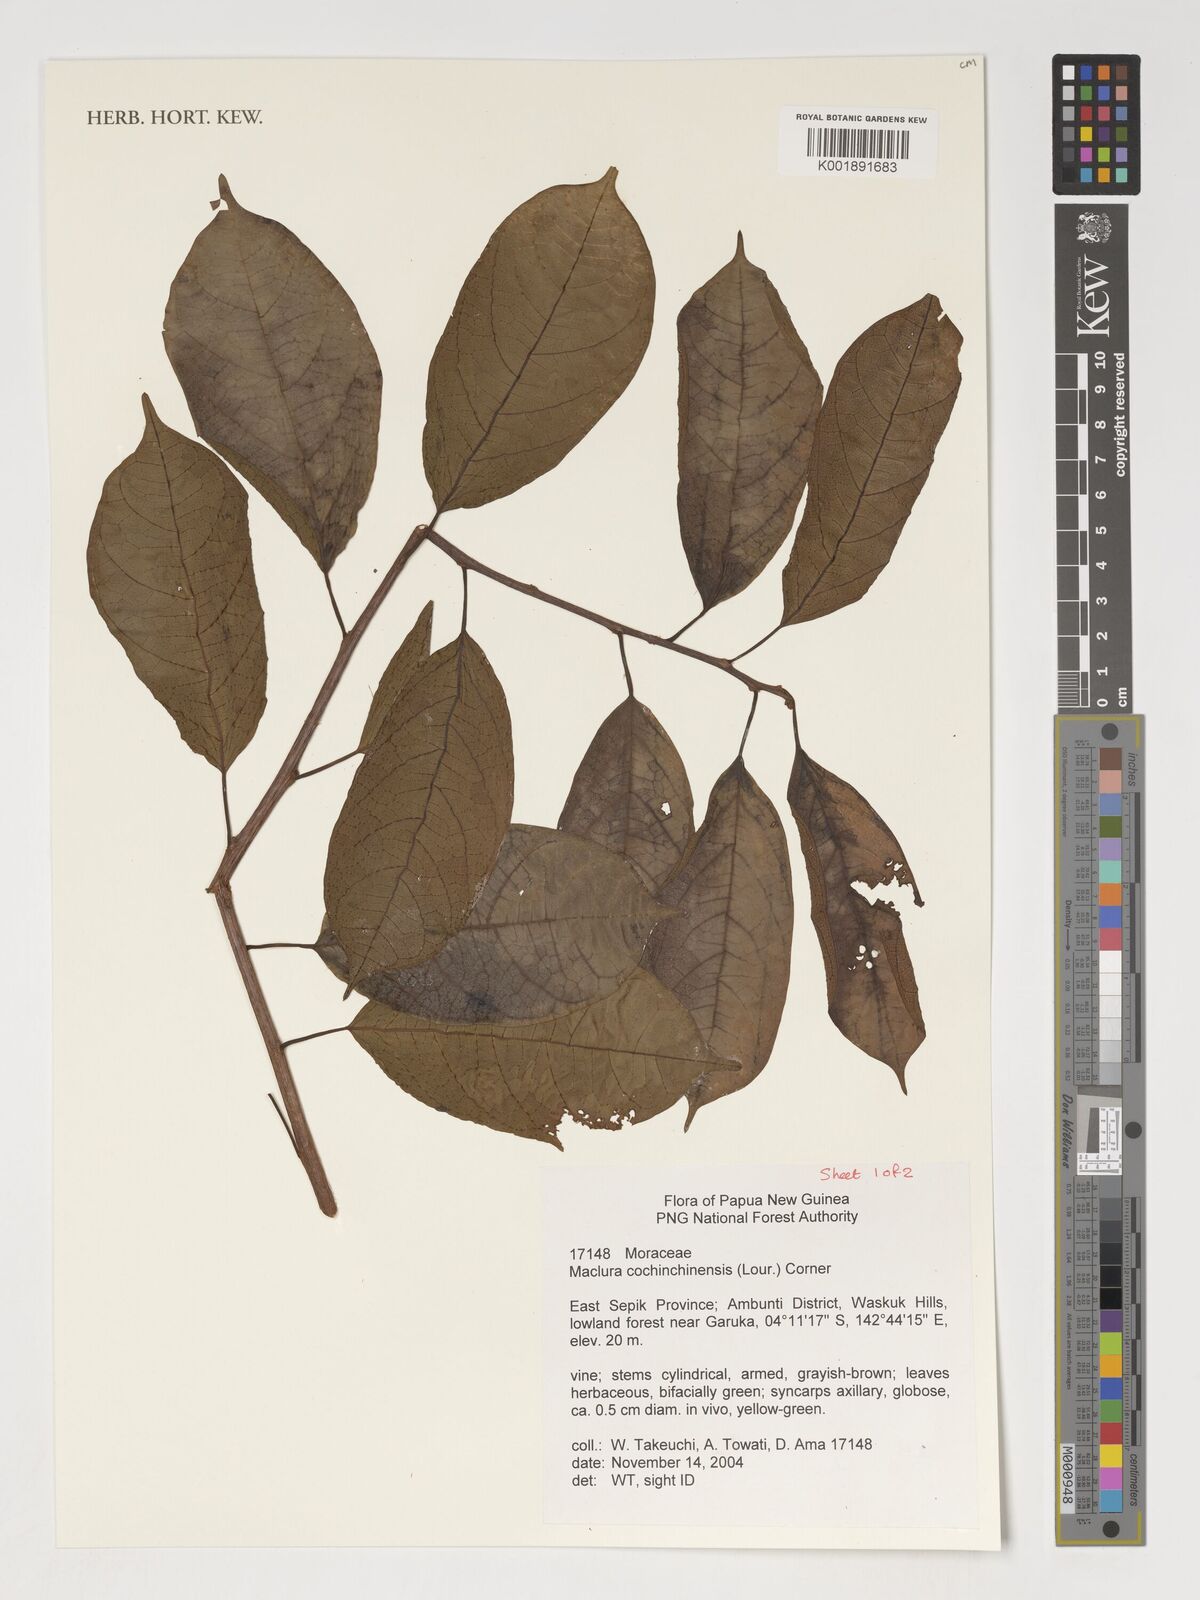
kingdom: Plantae
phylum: Tracheophyta
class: Magnoliopsida
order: Rosales
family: Moraceae
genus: Maclura
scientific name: Maclura cochinchinensis
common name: Cockspurthorn
